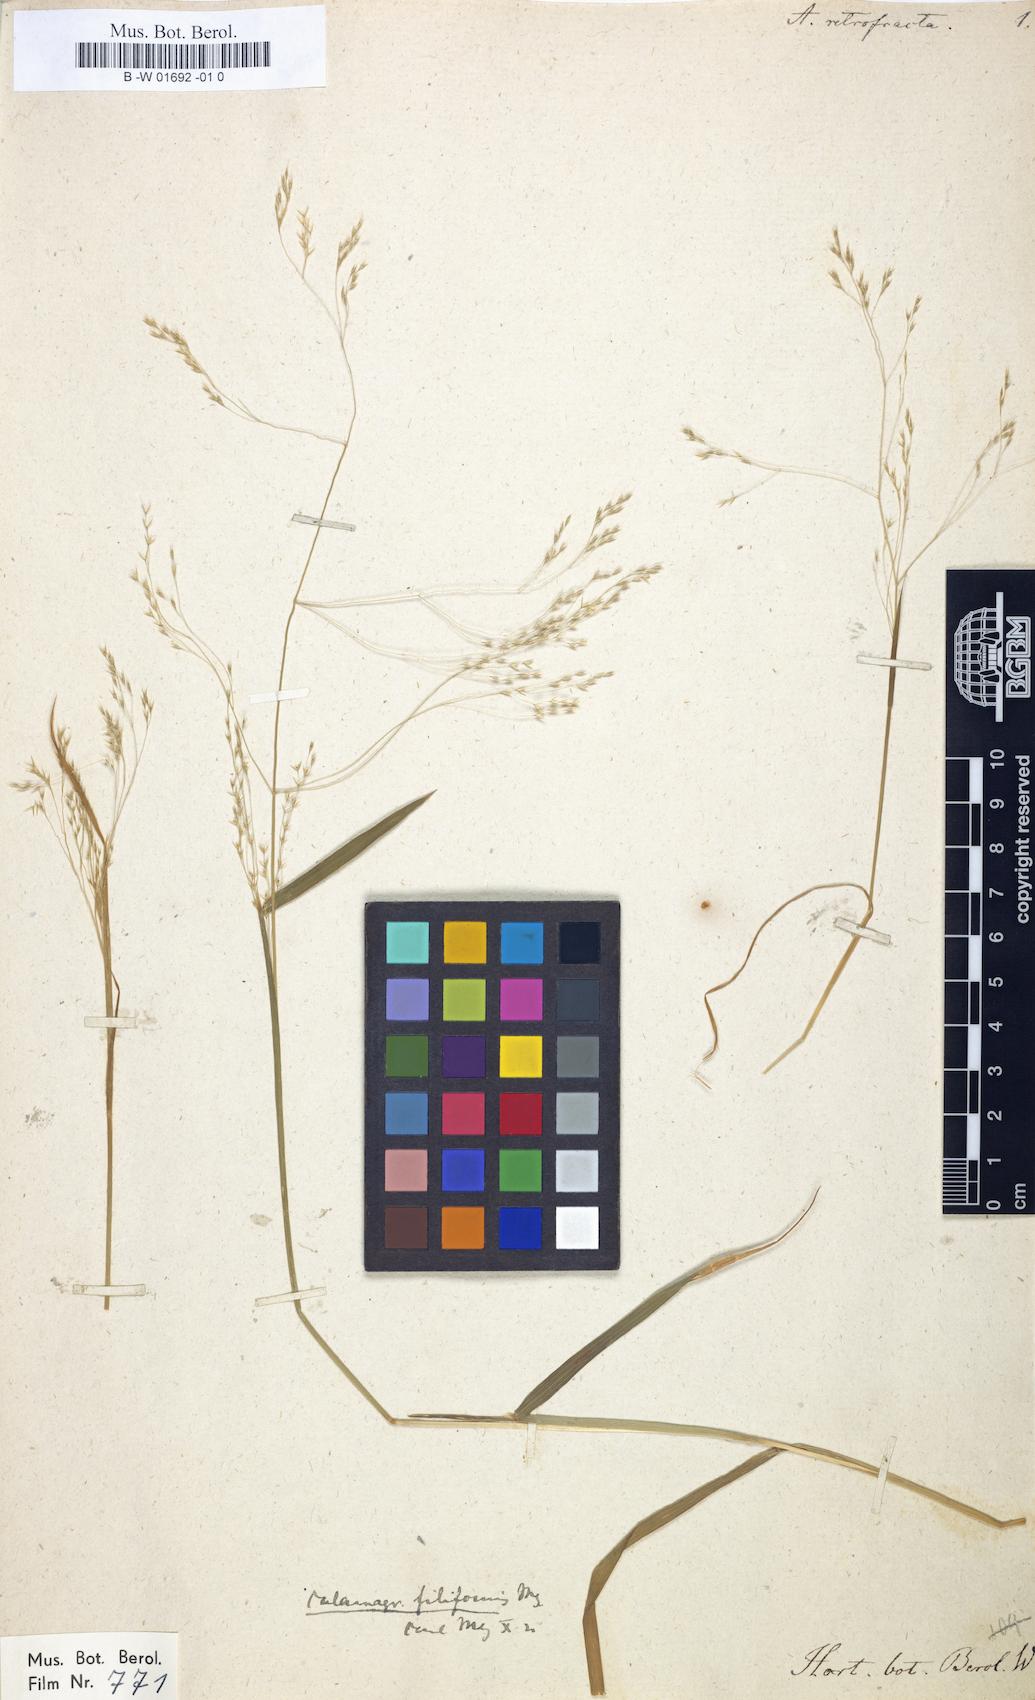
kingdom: Plantae
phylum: Tracheophyta
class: Liliopsida
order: Poales
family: Poaceae
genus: Lachnagrostis
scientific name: Lachnagrostis filiformis
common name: Bentgrass
